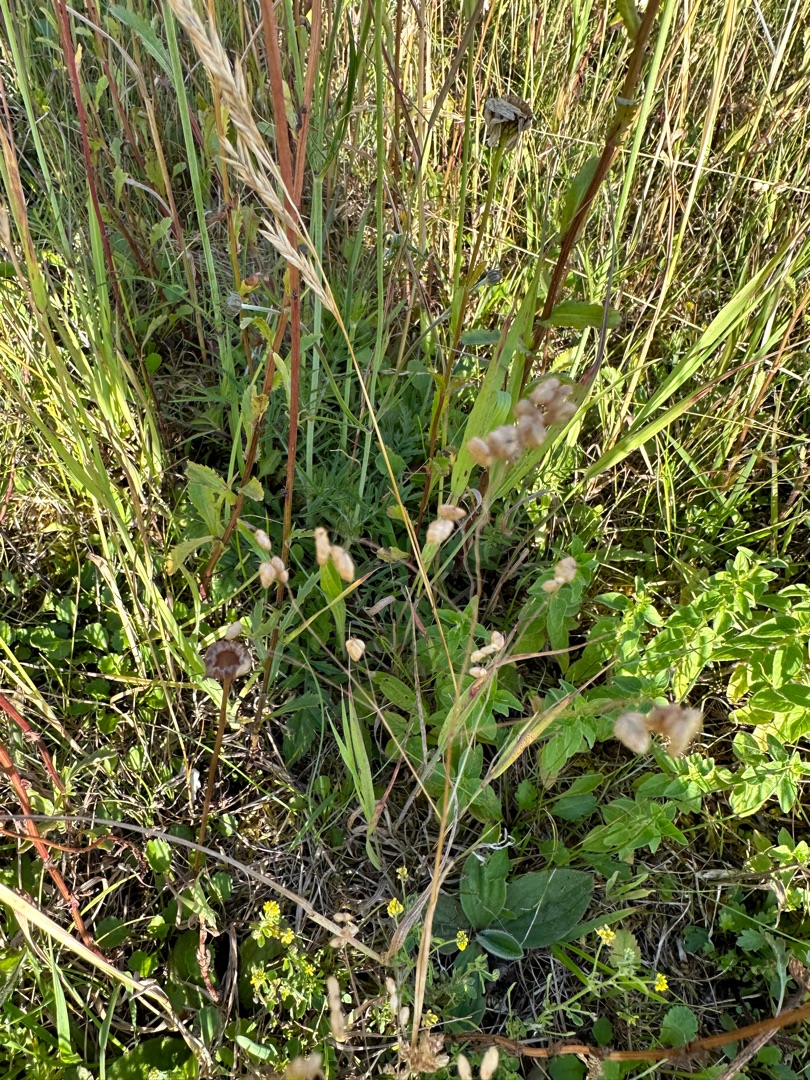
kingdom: Plantae
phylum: Tracheophyta
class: Liliopsida
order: Poales
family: Poaceae
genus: Briza
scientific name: Briza media
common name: Hjertegræs
